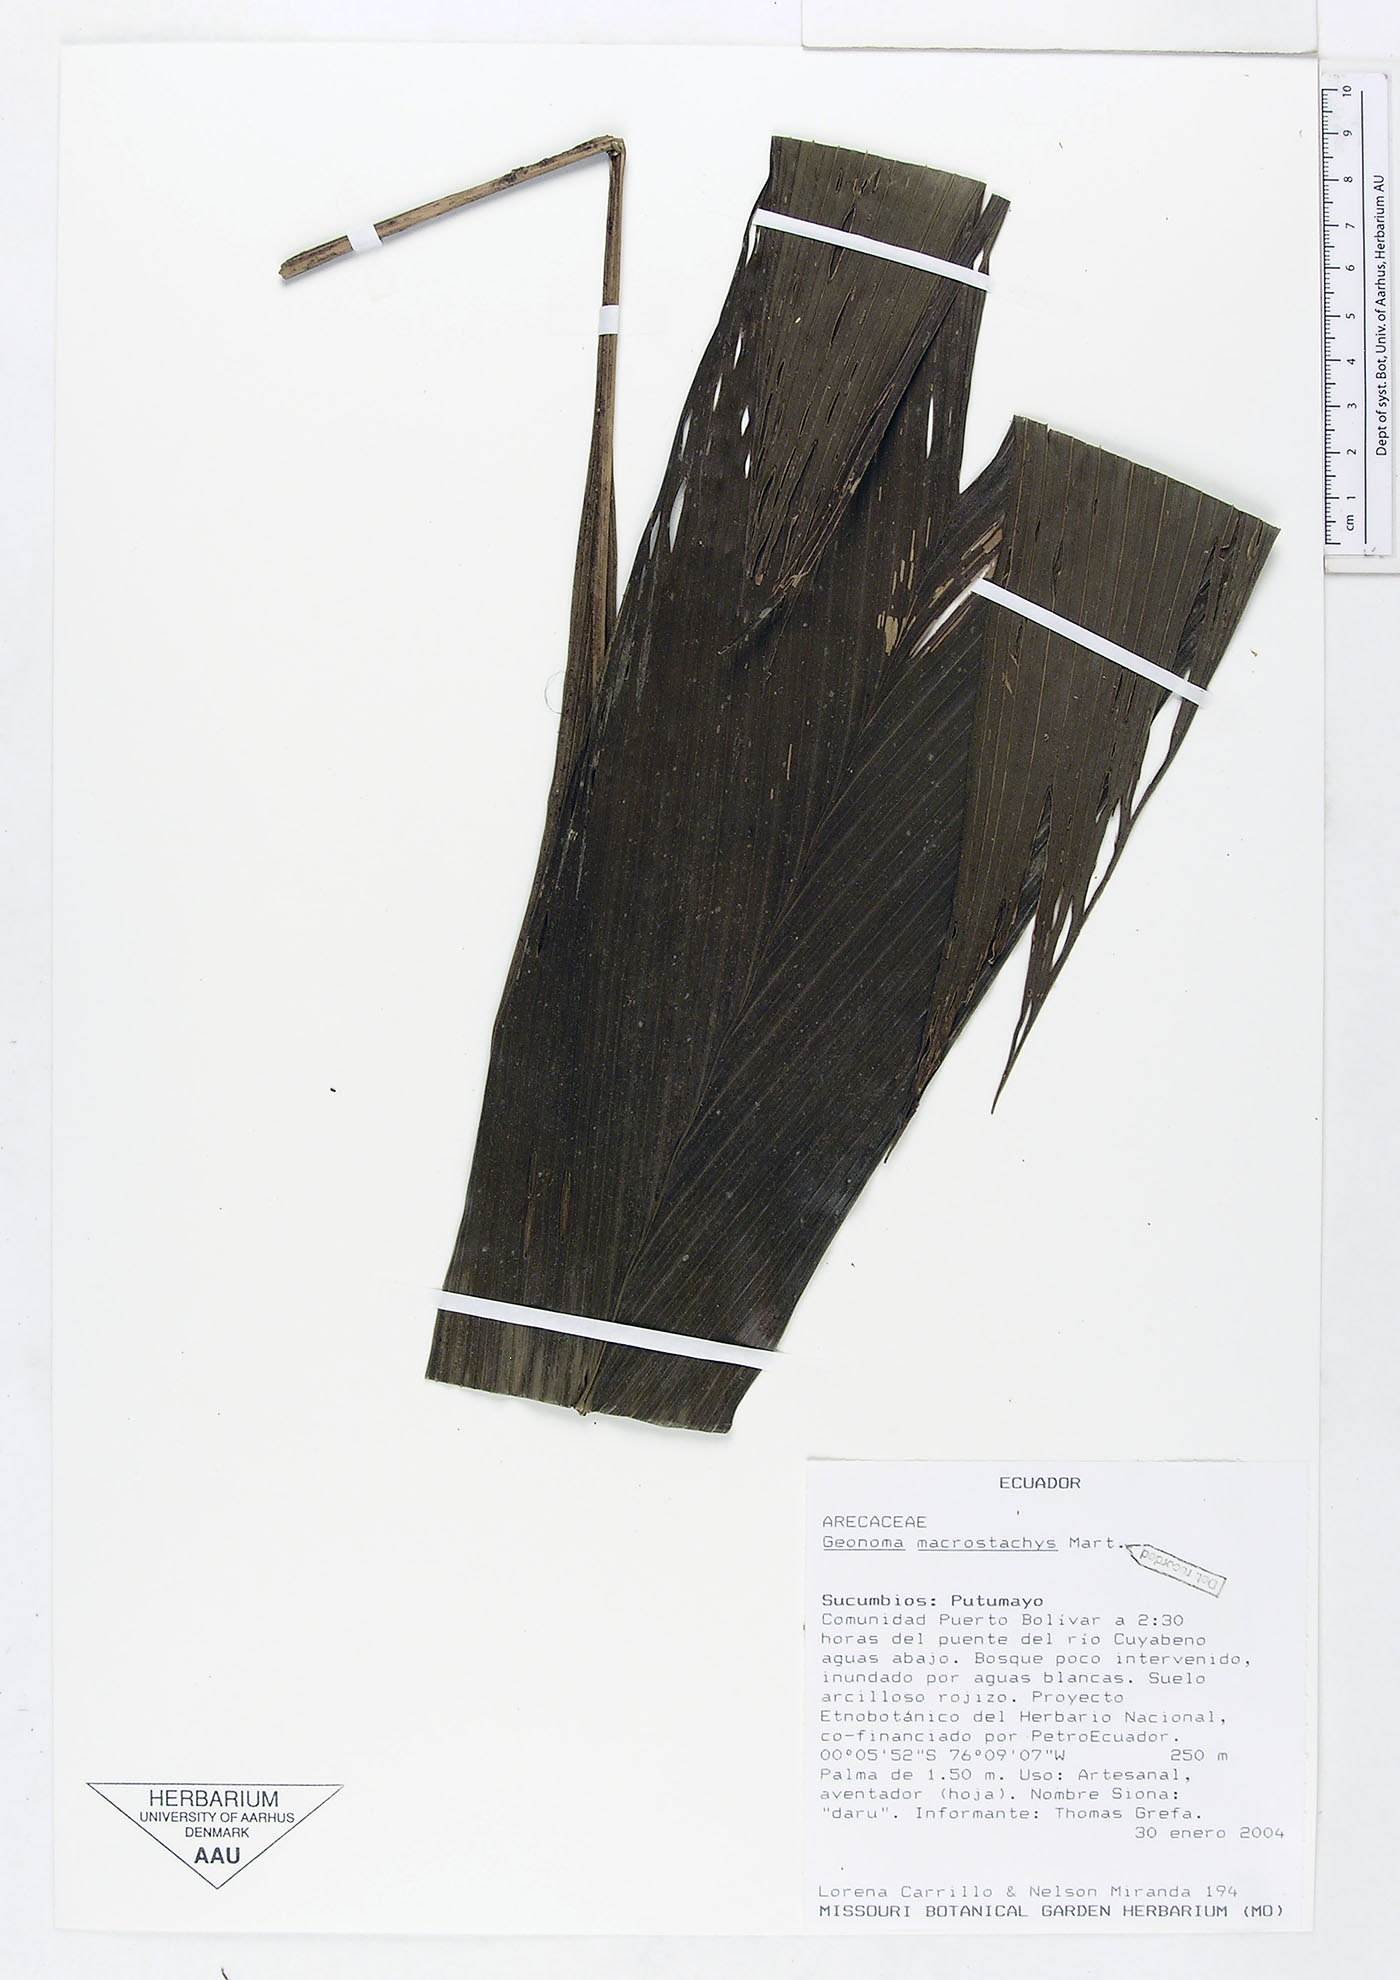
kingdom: Plantae
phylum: Tracheophyta
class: Liliopsida
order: Arecales
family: Arecaceae
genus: Geonoma
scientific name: Geonoma macrostachys
